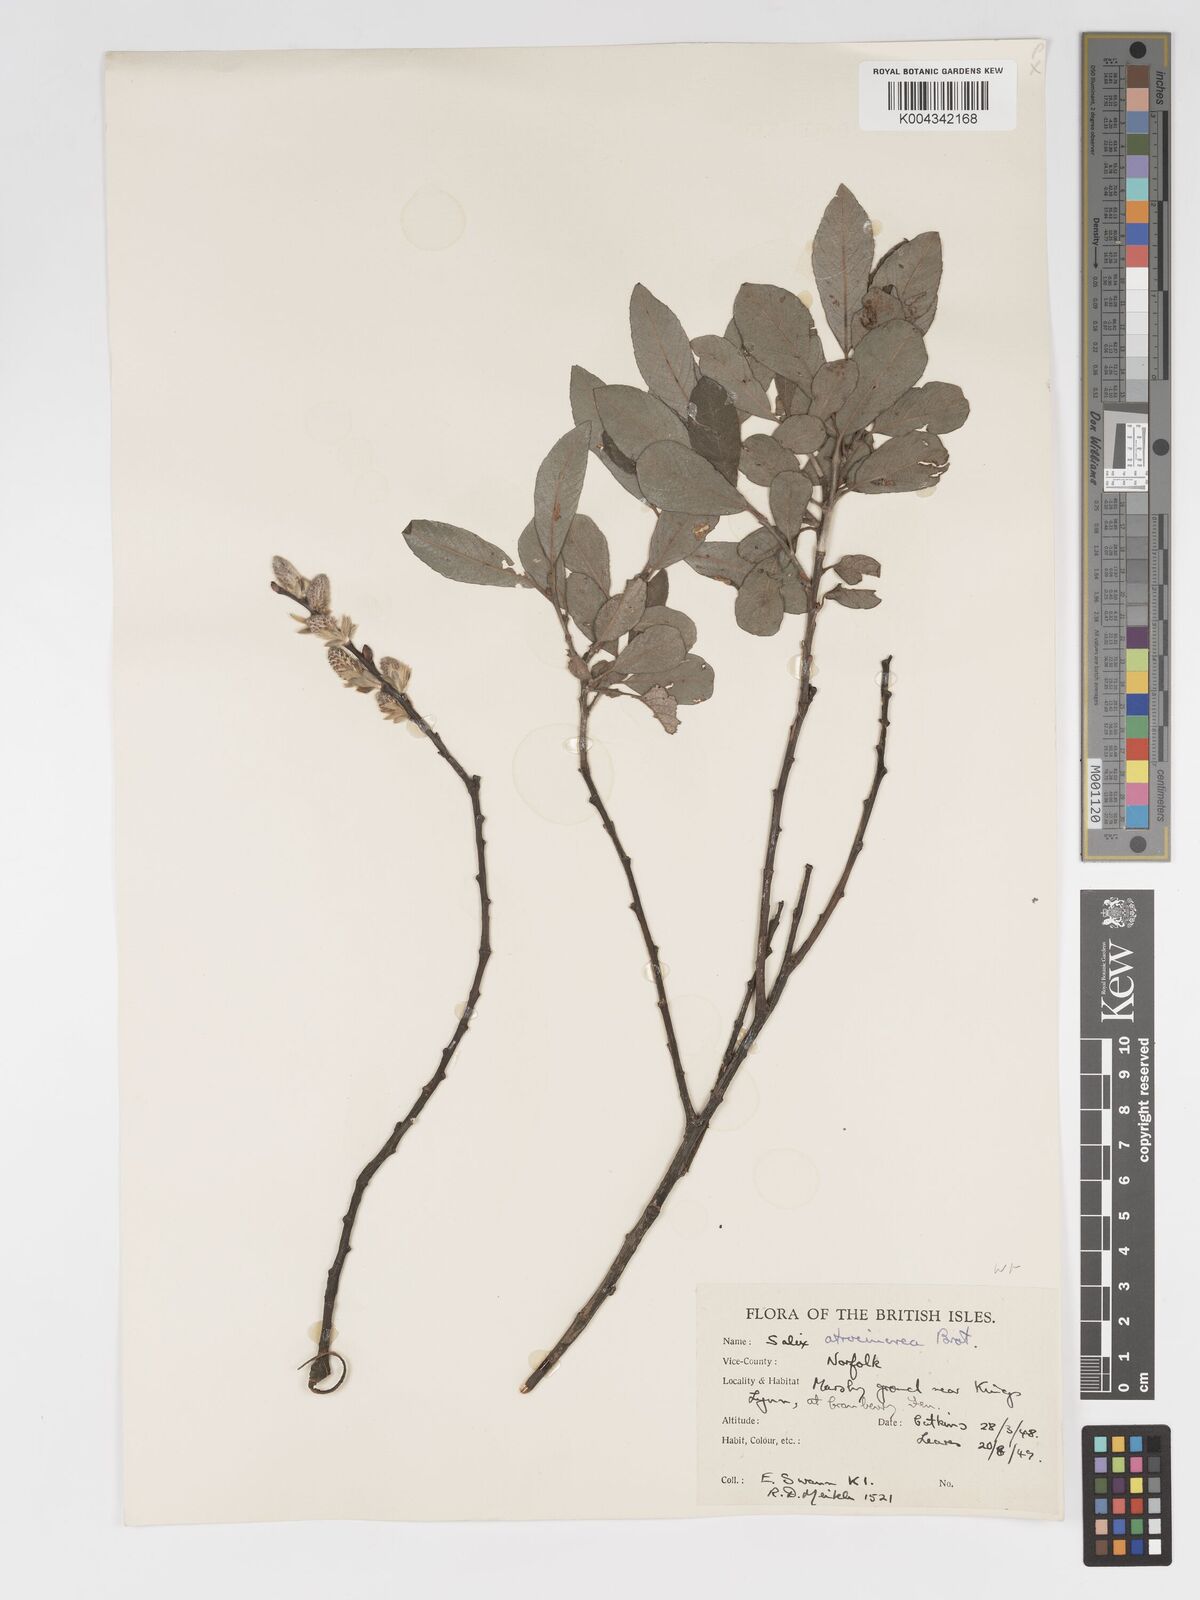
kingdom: Plantae
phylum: Tracheophyta
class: Magnoliopsida
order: Malpighiales
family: Salicaceae
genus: Salix
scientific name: Salix
